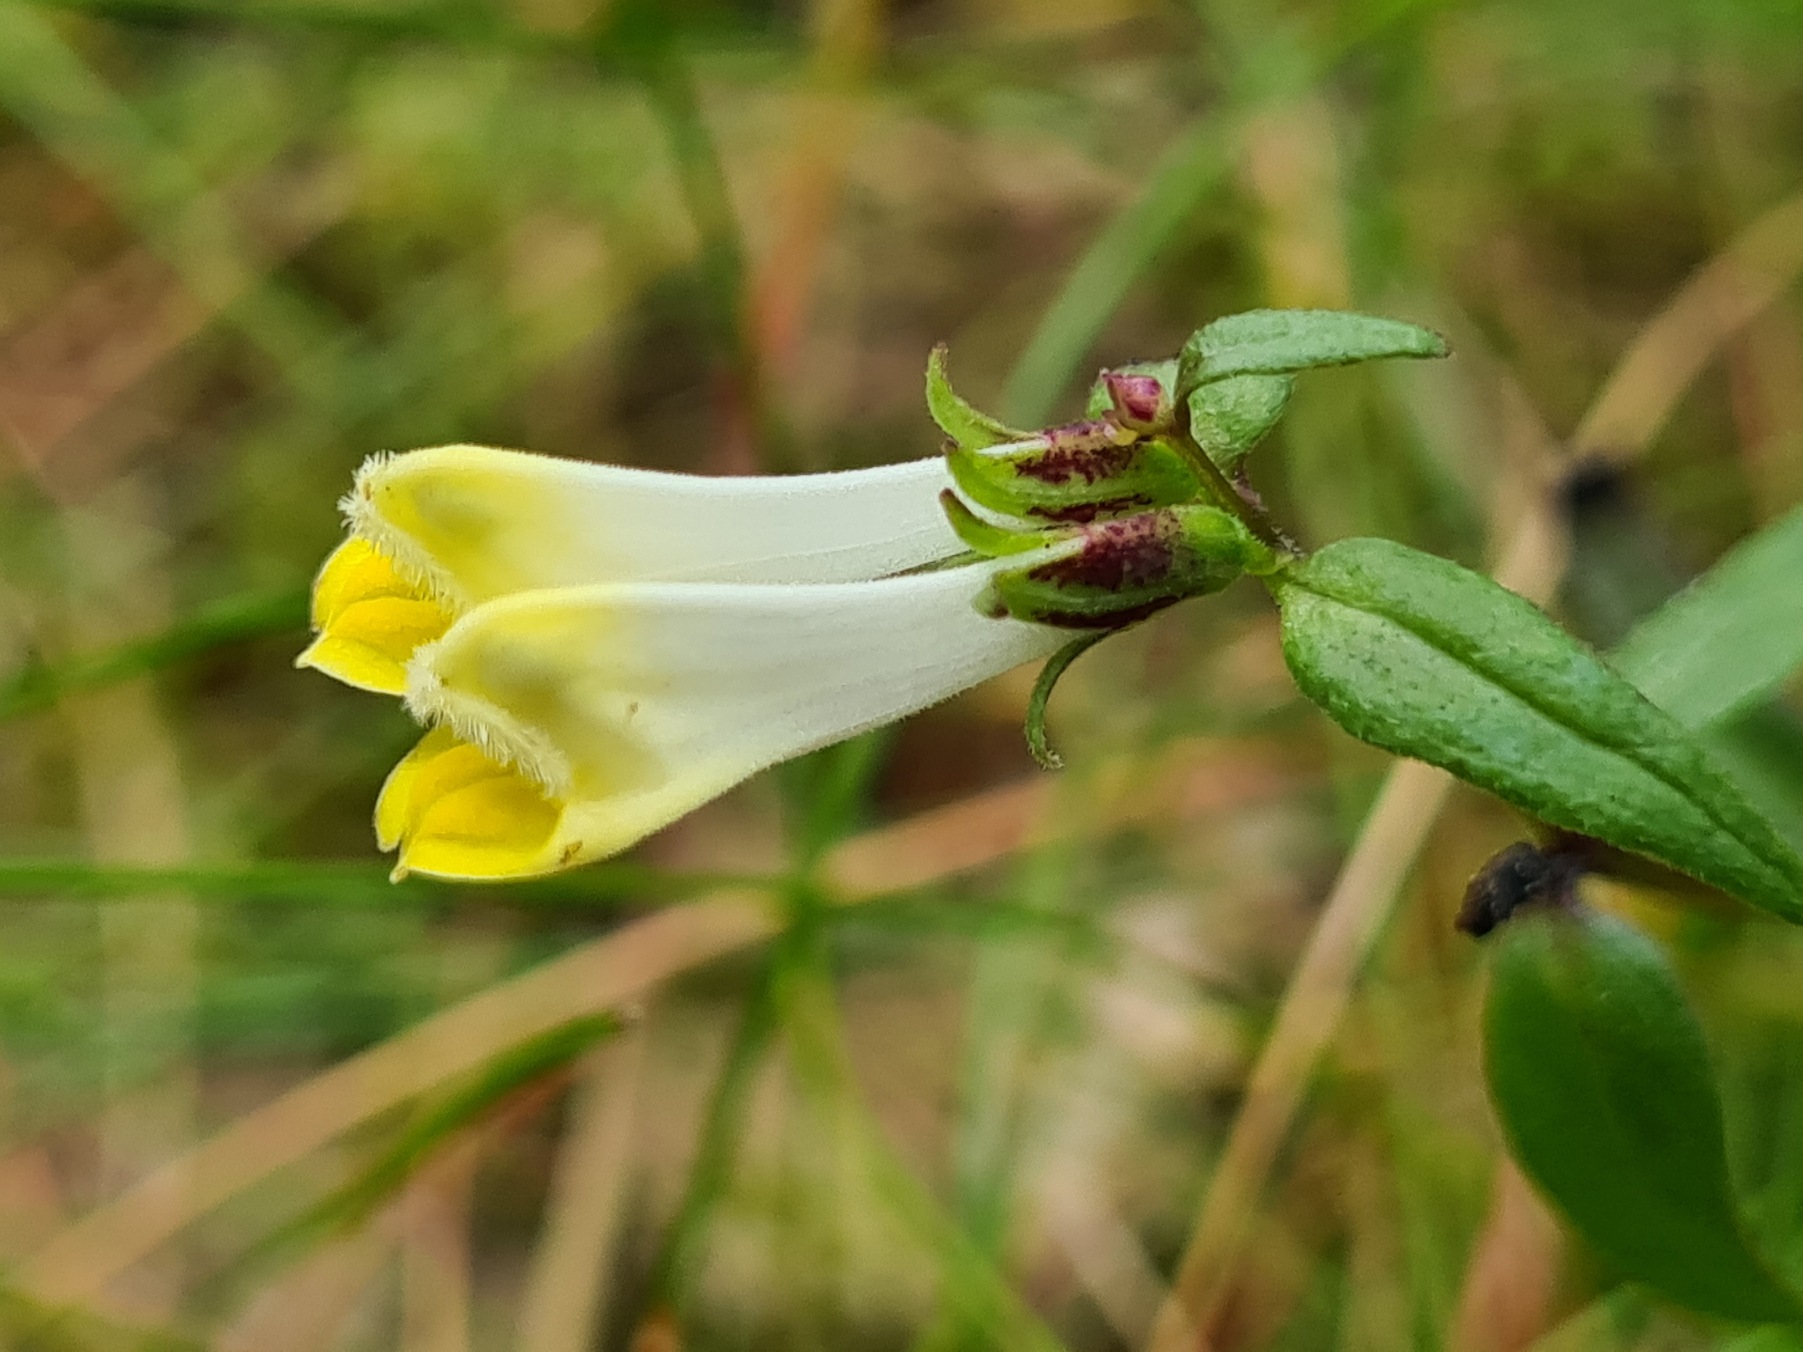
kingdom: Plantae
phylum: Tracheophyta
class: Magnoliopsida
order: Lamiales
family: Orobanchaceae
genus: Melampyrum
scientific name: Melampyrum pratense
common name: Almindelig kohvede
